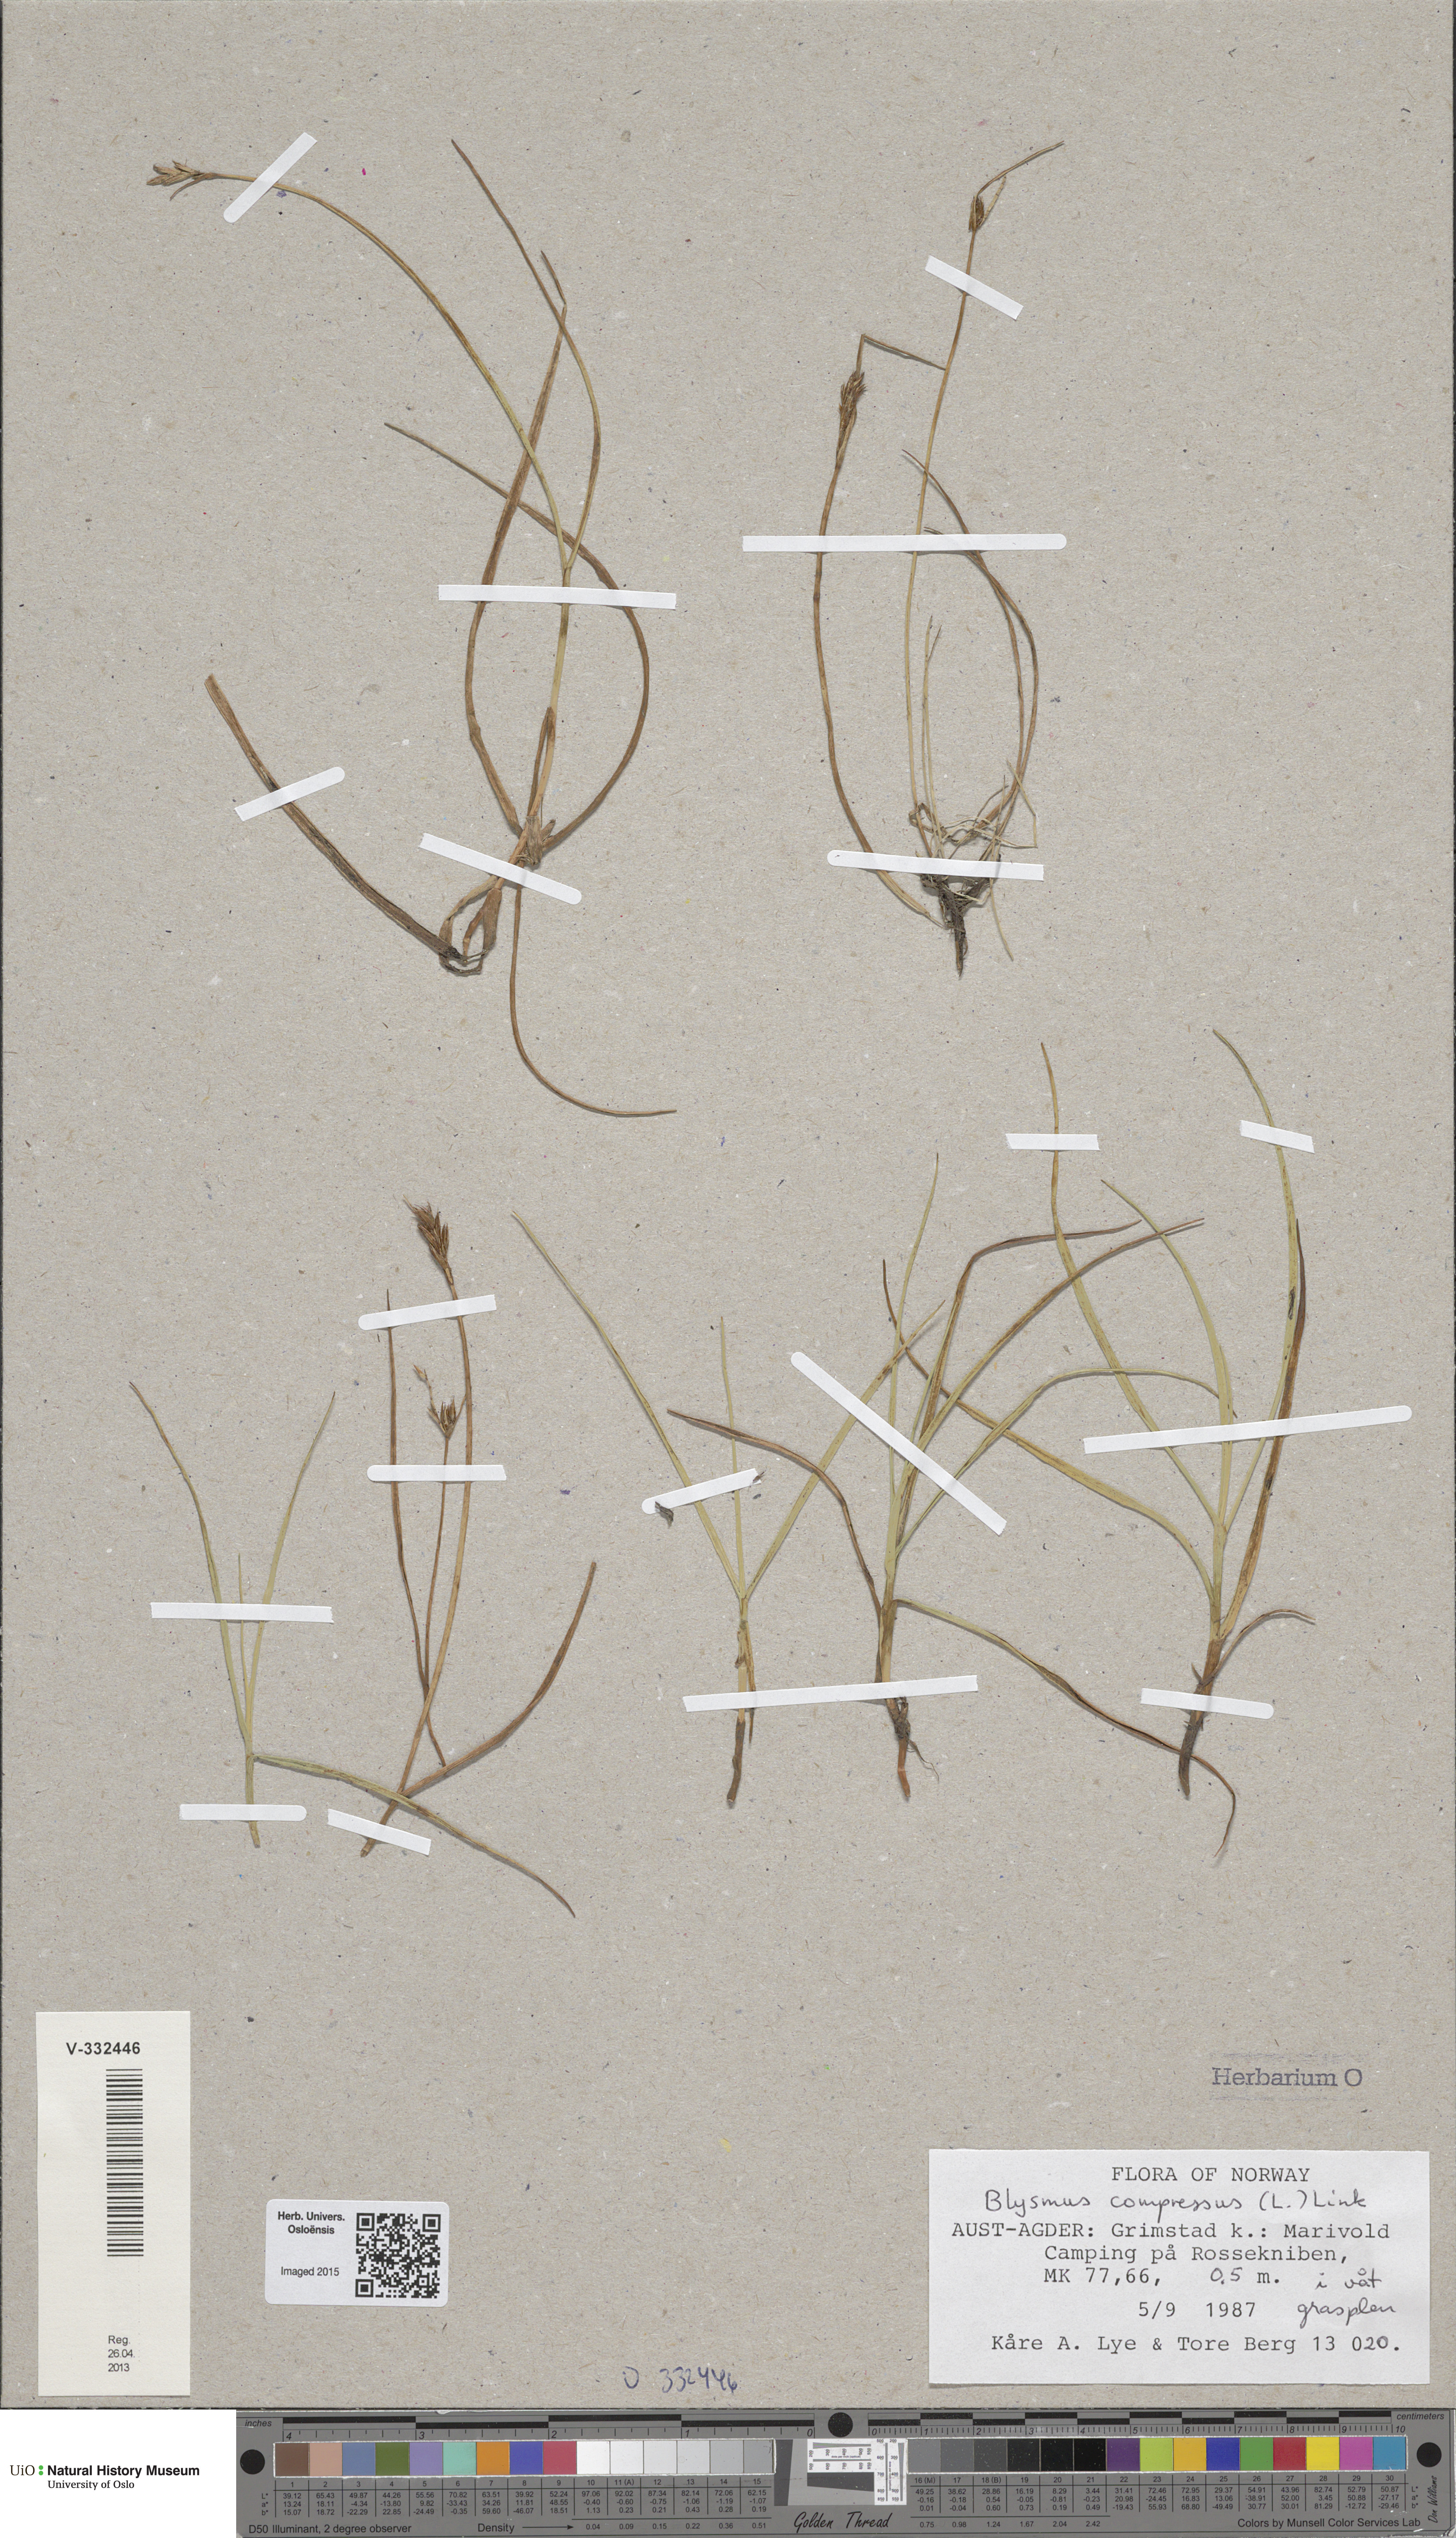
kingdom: Plantae
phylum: Tracheophyta
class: Liliopsida
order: Poales
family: Cyperaceae
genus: Blysmus
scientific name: Blysmus compressus
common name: Flat-sedge
